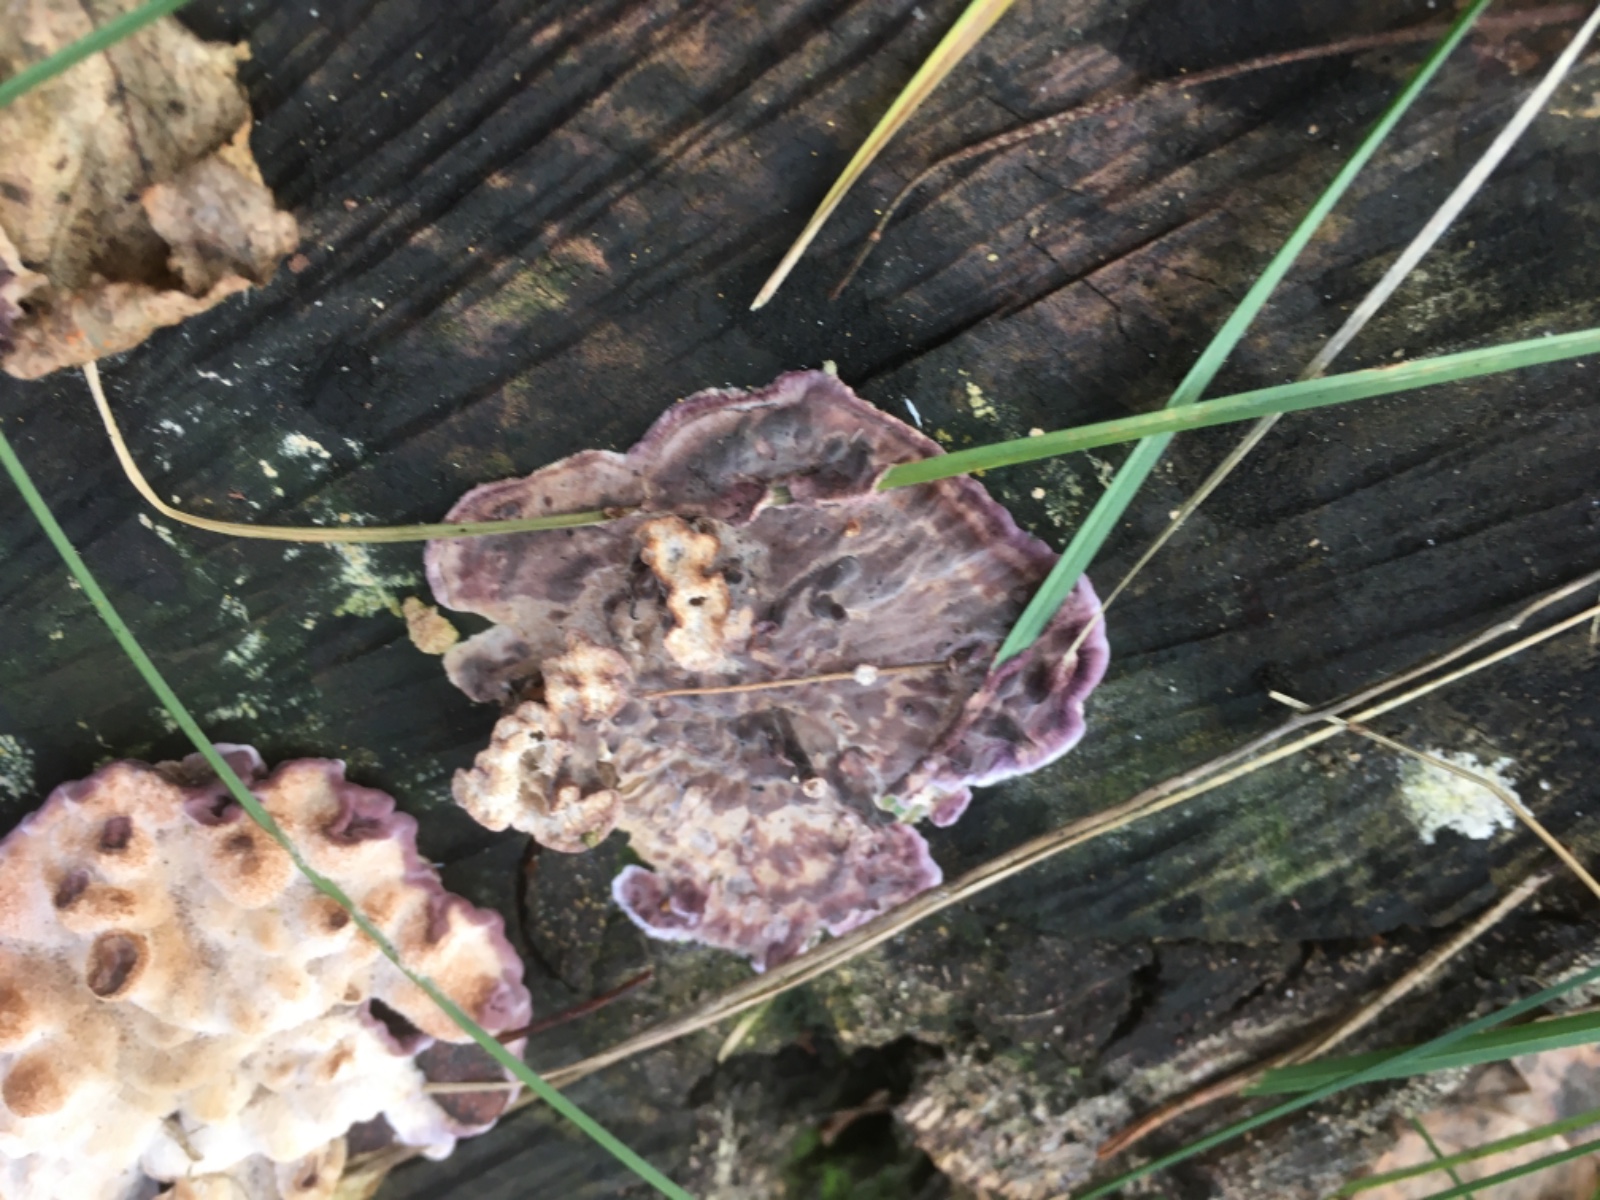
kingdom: Fungi
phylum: Basidiomycota
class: Agaricomycetes
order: Agaricales
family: Cyphellaceae
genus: Chondrostereum
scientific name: Chondrostereum purpureum
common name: purpurlædersvamp
